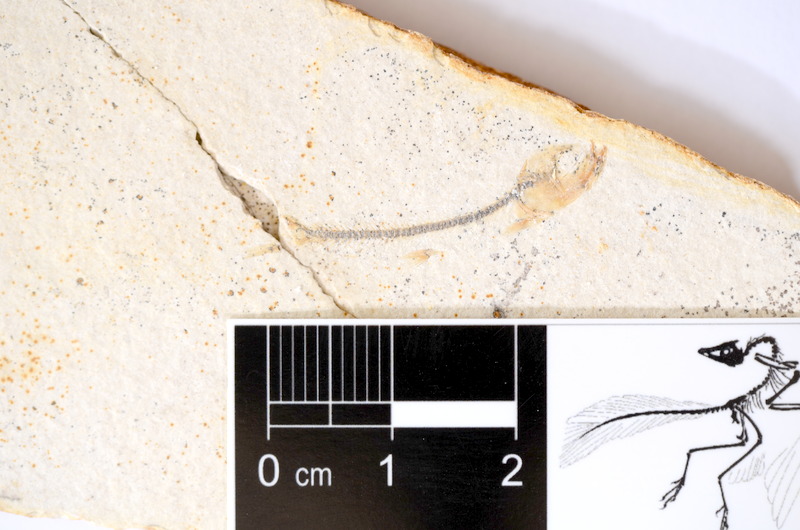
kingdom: Animalia
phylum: Chordata
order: Salmoniformes
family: Orthogonikleithridae
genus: Orthogonikleithrus
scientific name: Orthogonikleithrus hoelli
